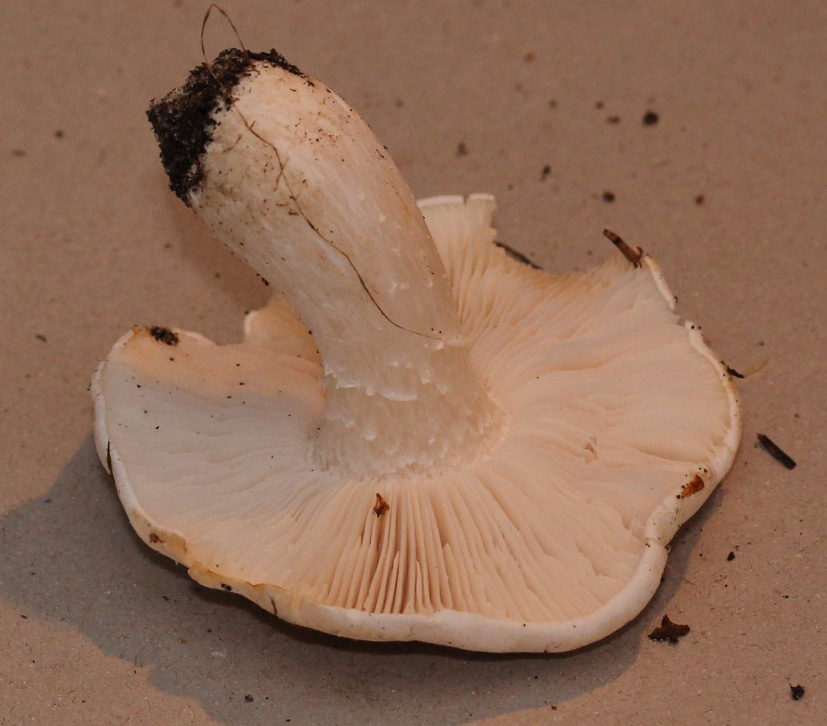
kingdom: Fungi
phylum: Basidiomycota
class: Agaricomycetes
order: Agaricales
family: Tricholomataceae
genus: Tricholoma
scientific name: Tricholoma stiparophyllum
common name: hvid ridderhat
